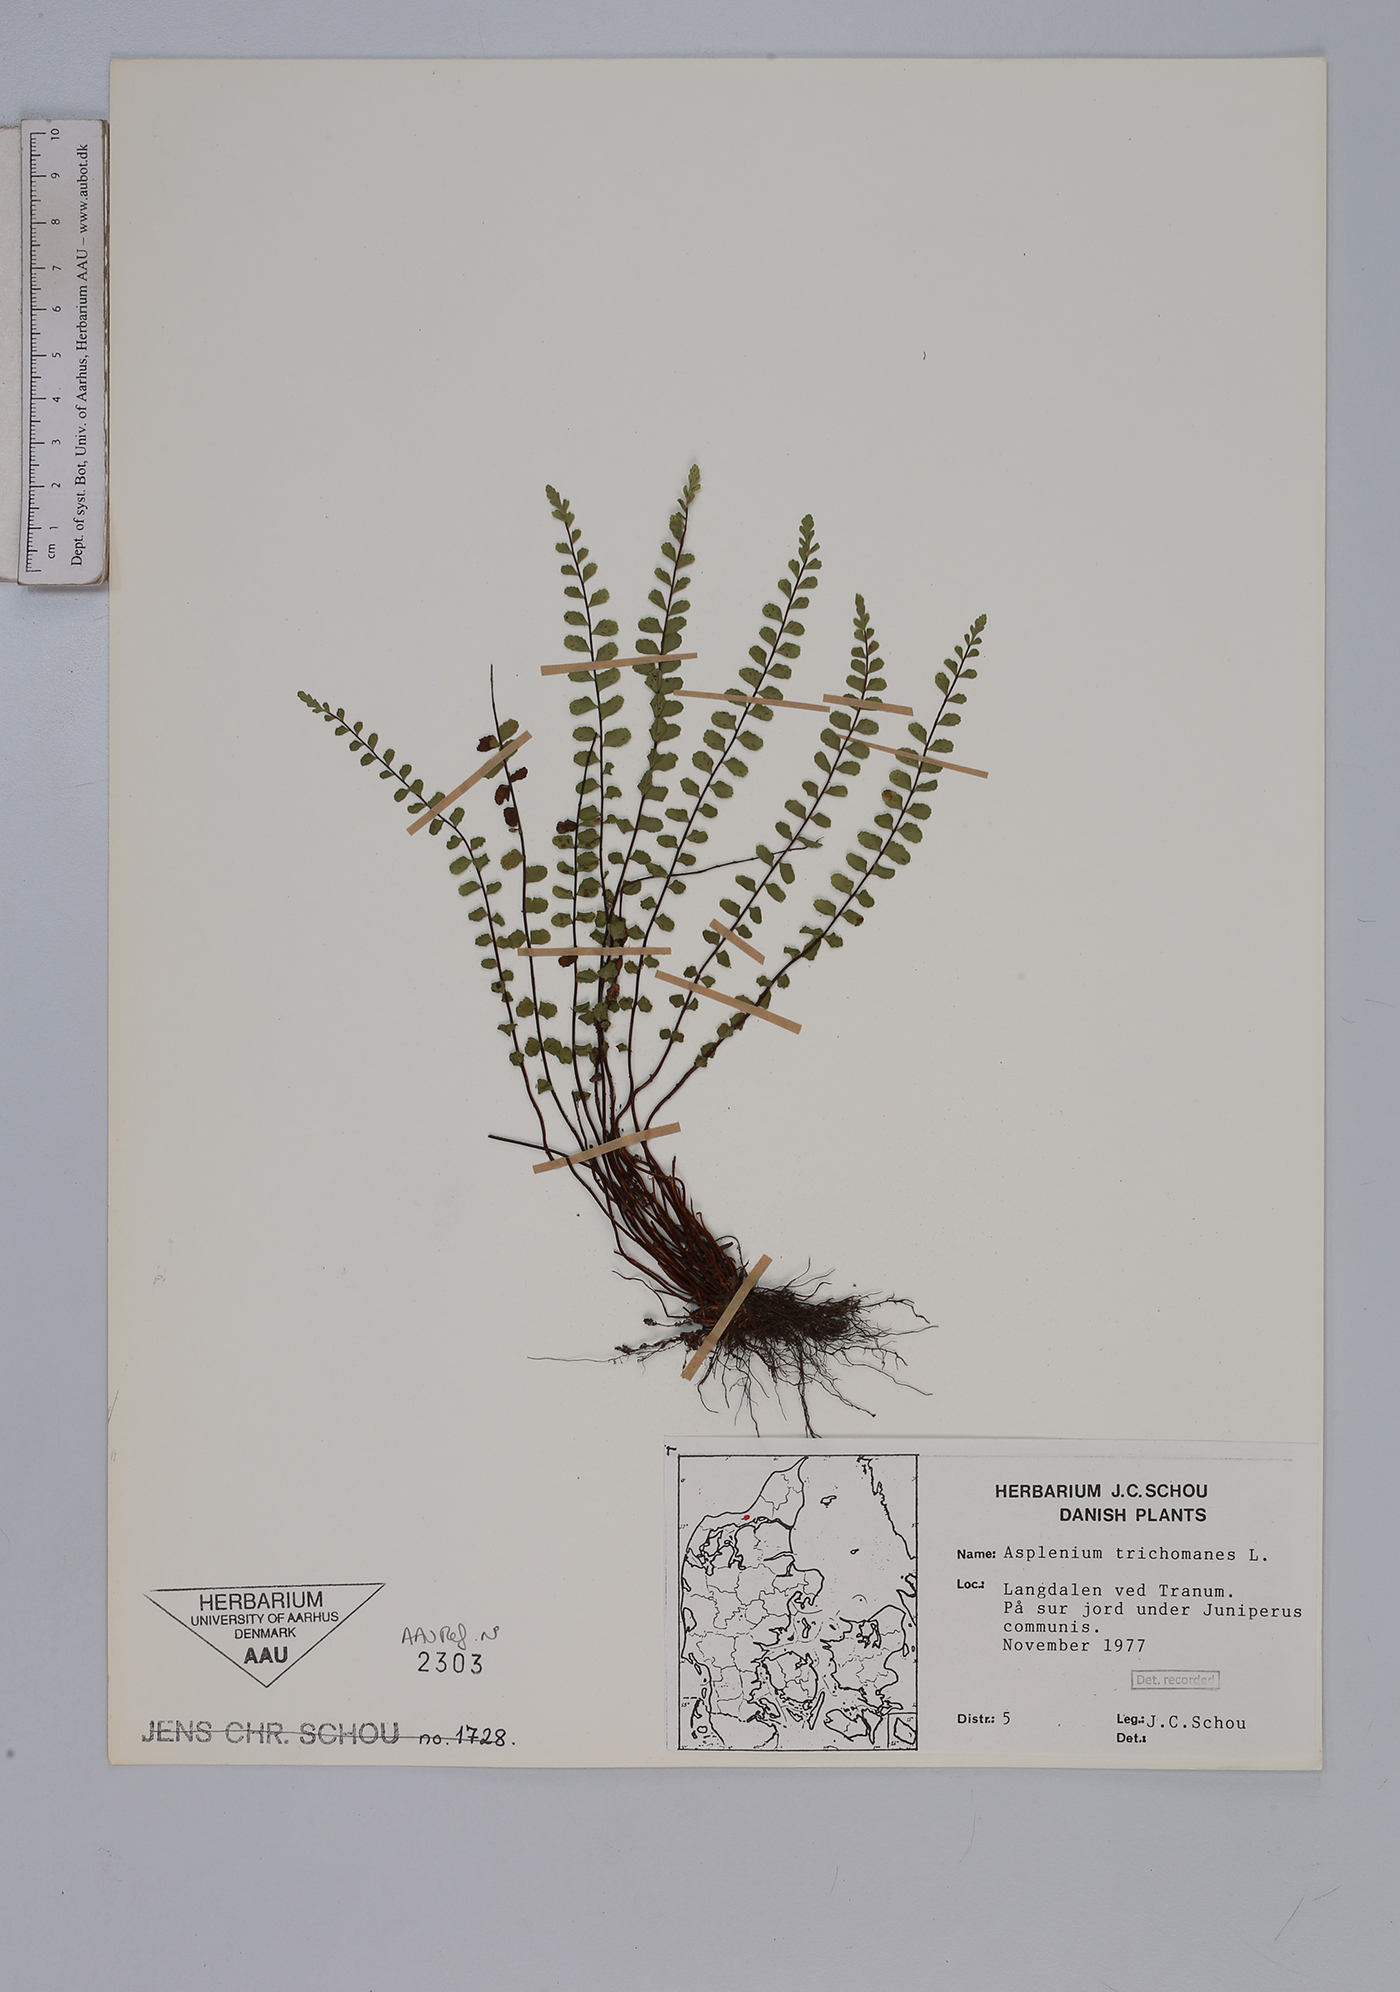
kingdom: Plantae
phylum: Tracheophyta
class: Polypodiopsida
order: Polypodiales
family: Aspleniaceae
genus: Asplenium
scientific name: Asplenium trichomanes
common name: Maidenhair spleenwort
